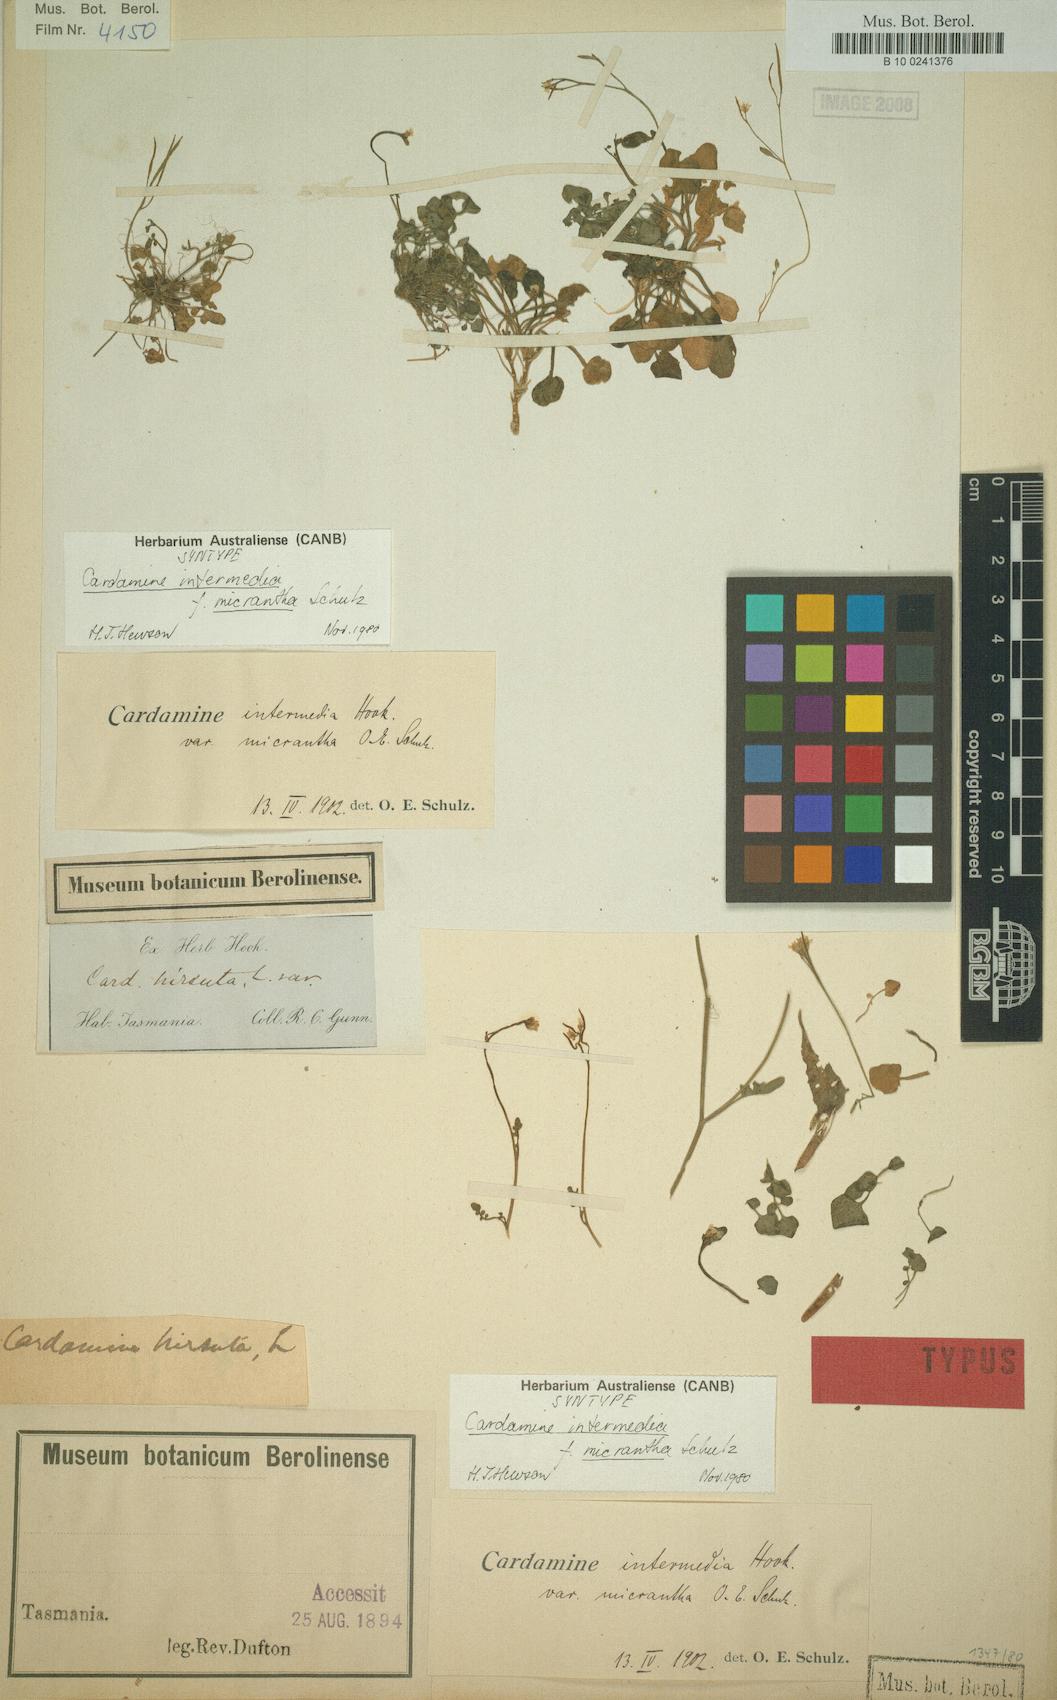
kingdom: Plantae
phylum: Tracheophyta
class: Magnoliopsida
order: Brassicales
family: Brassicaceae
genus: Cardamine
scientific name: Cardamine lilacina
